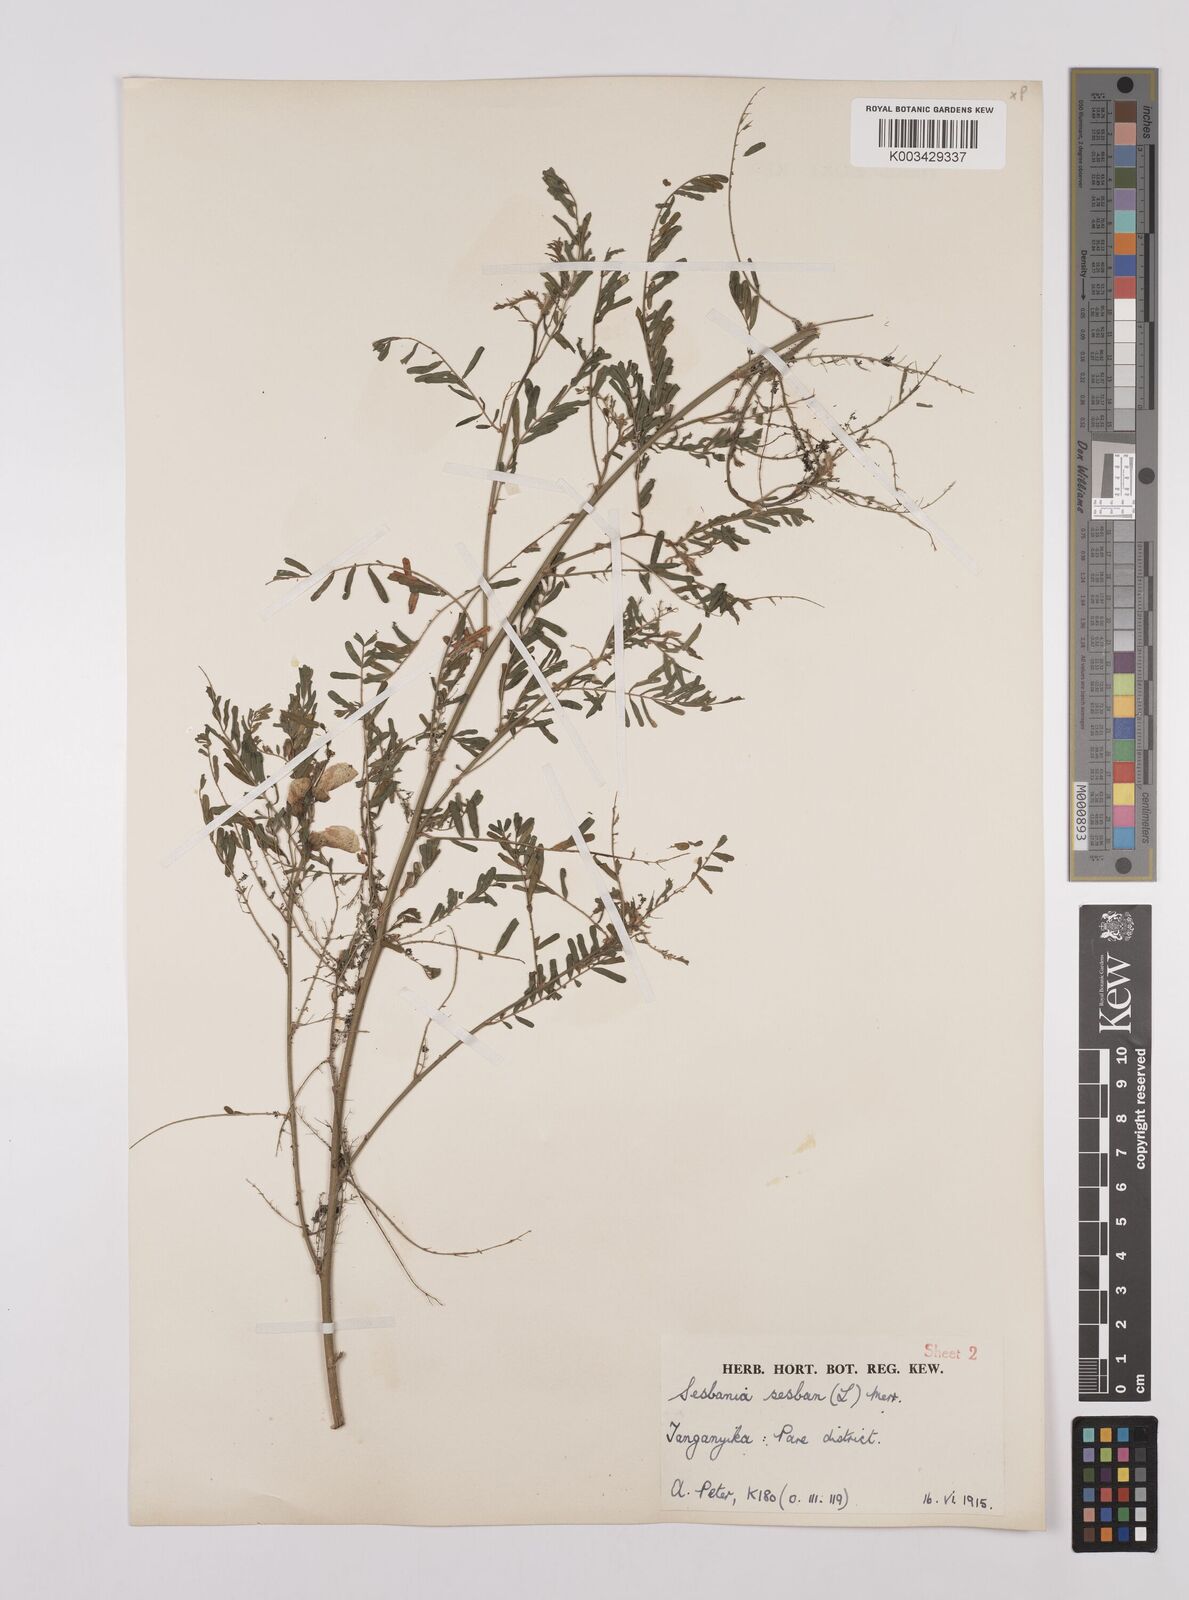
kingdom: Plantae
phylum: Tracheophyta
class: Magnoliopsida
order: Fabales
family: Fabaceae
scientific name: Fabaceae
